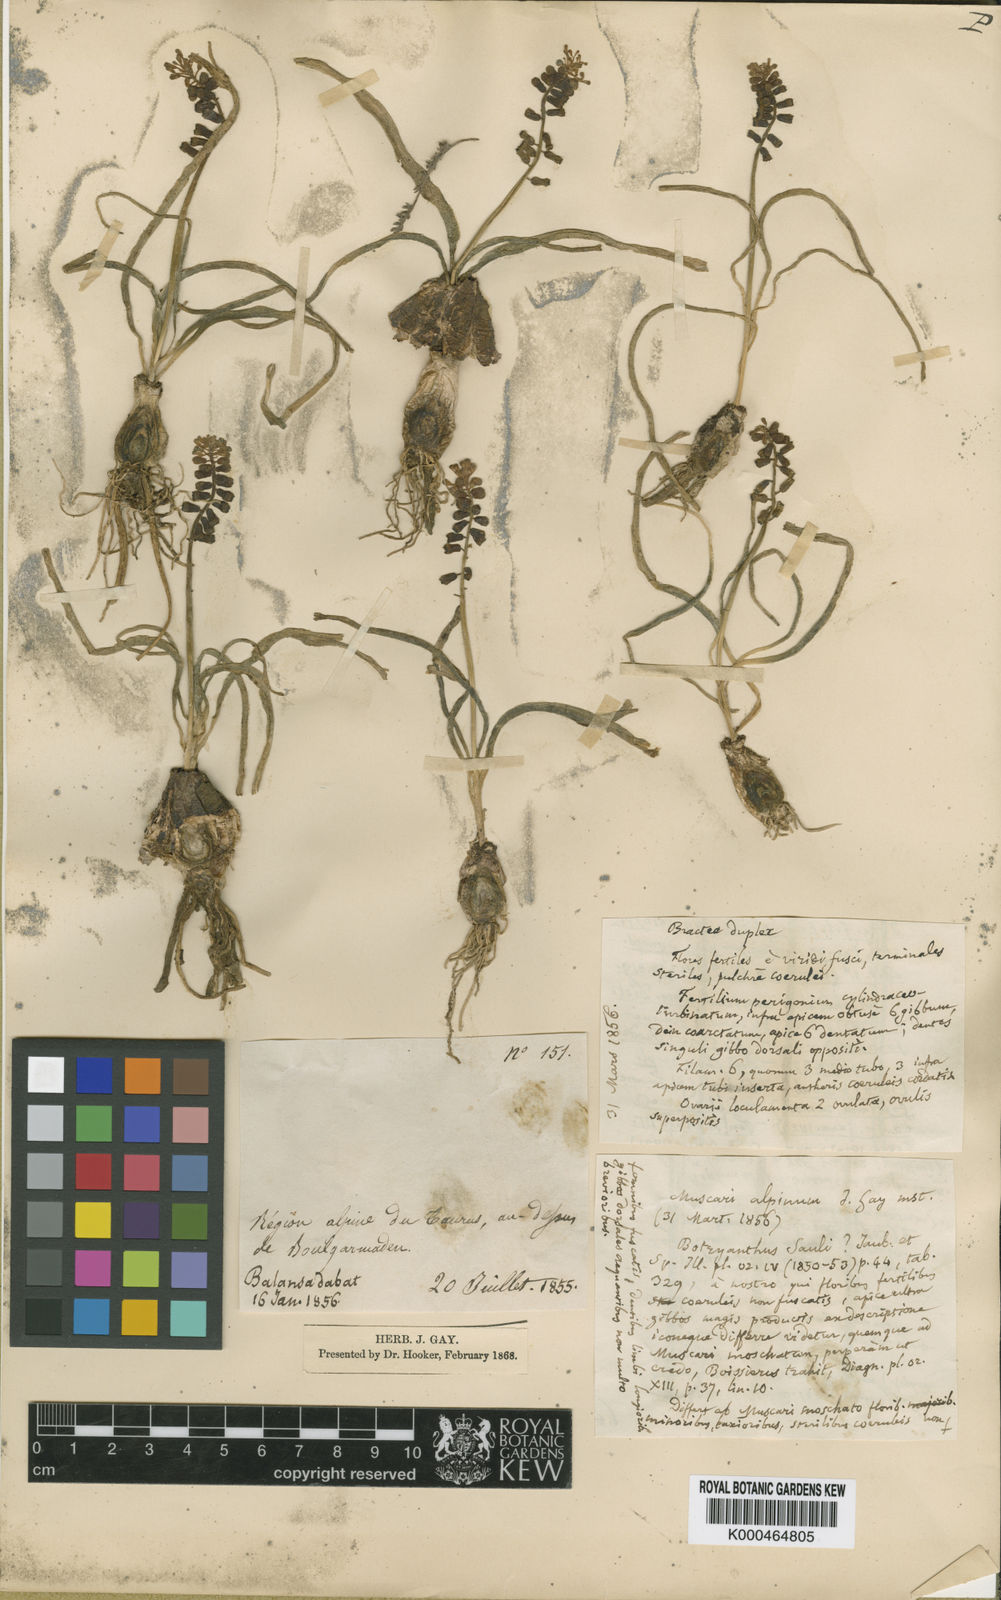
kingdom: Animalia
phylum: Mollusca
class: Cephalopoda
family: Neocomitidae
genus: Leopoldia
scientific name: Leopoldia
